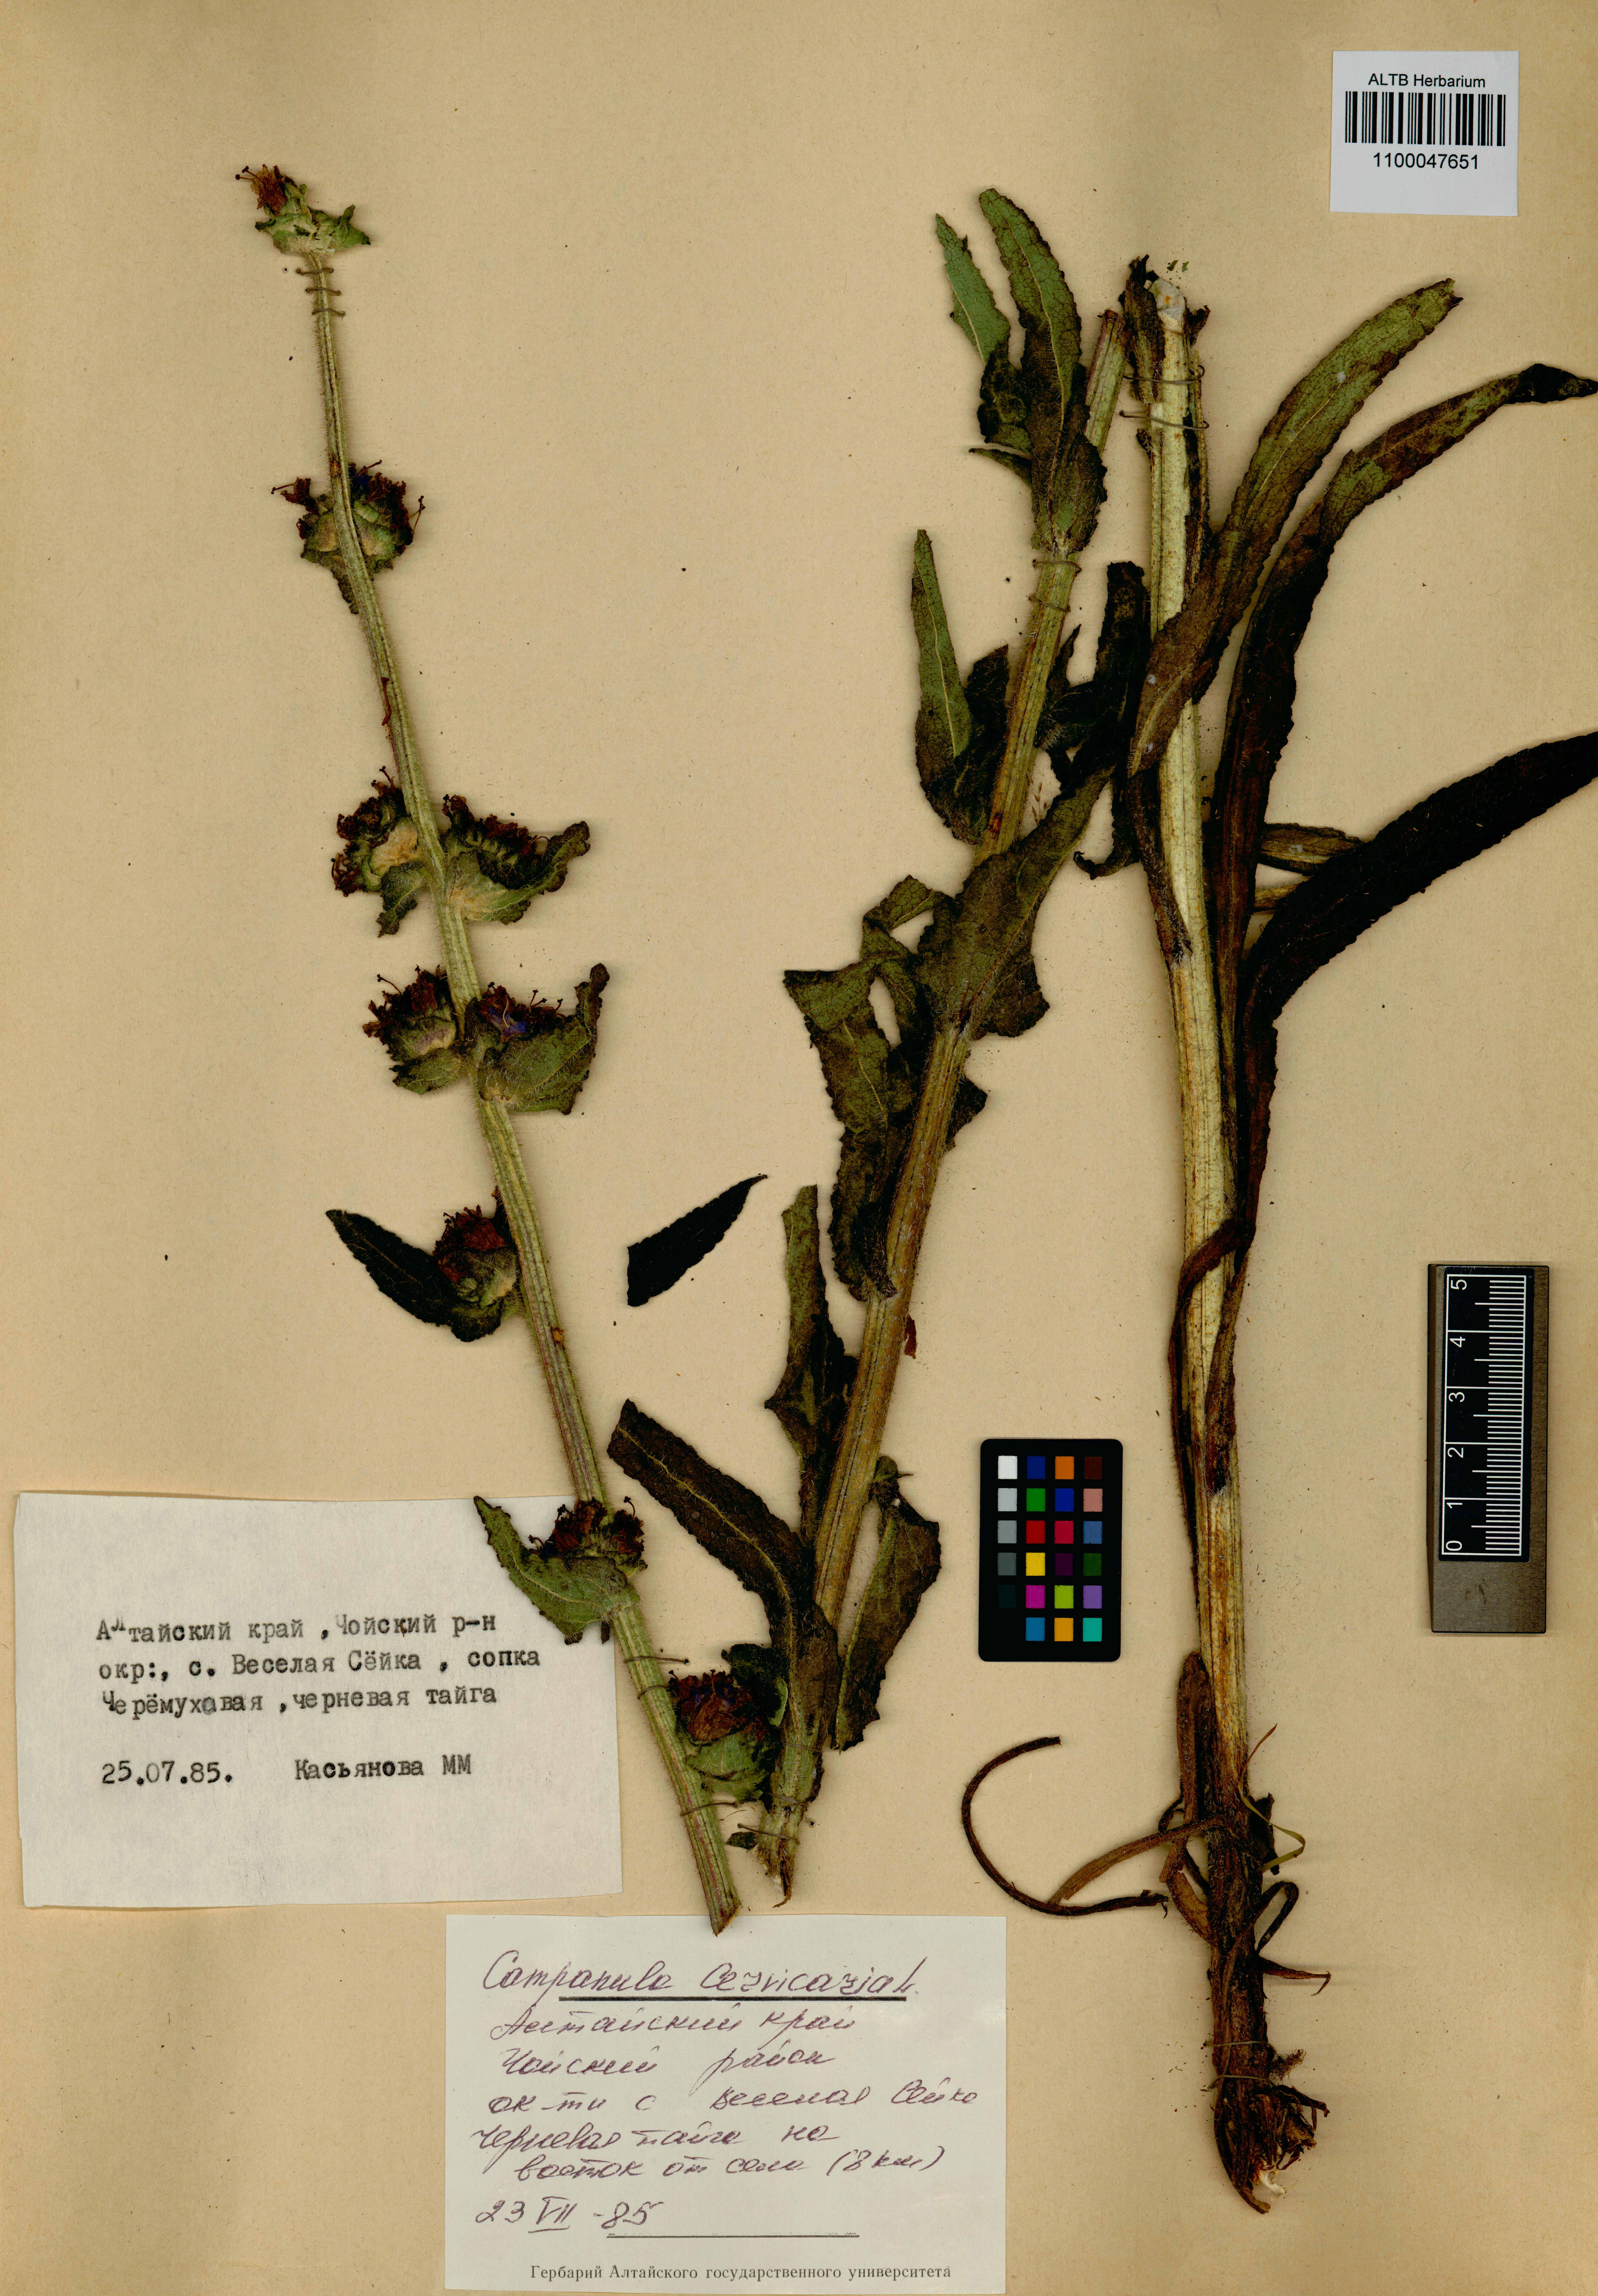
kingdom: Plantae
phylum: Tracheophyta
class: Magnoliopsida
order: Asterales
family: Campanulaceae
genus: Campanula
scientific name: Campanula cervicaria
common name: Bristly bellflower
